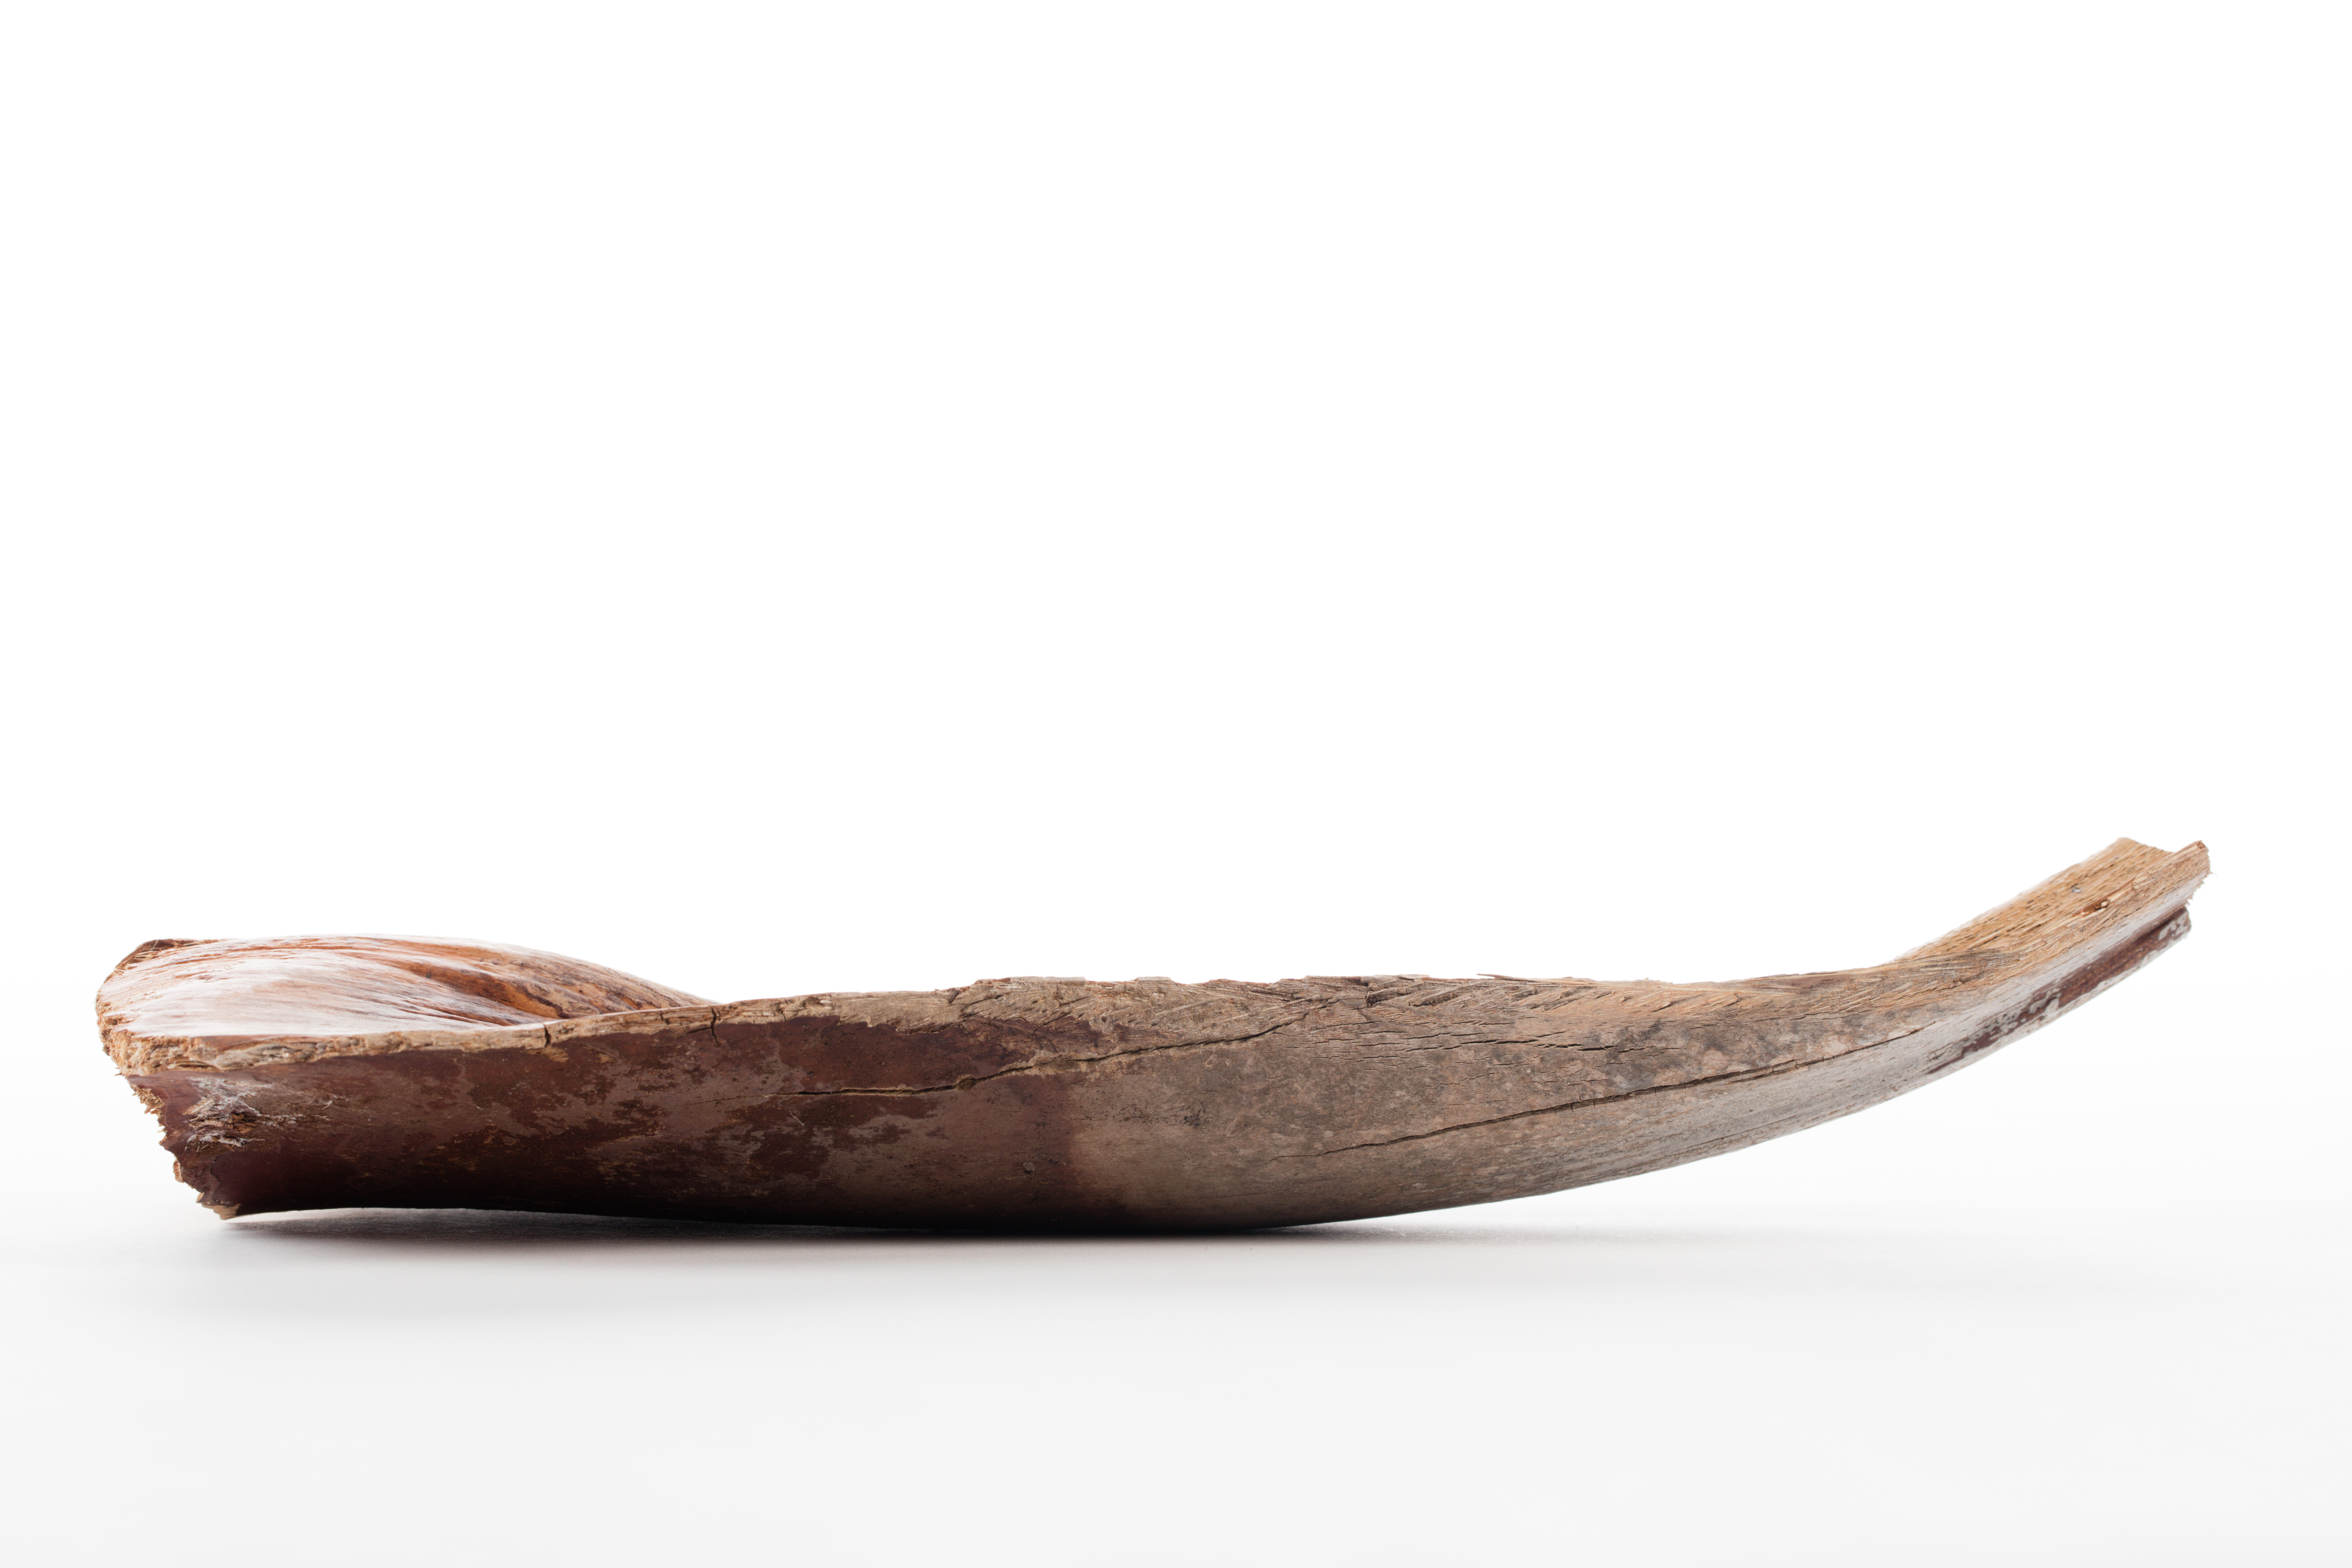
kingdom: Plantae
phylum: Tracheophyta
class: Liliopsida
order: Arecales
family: Arecaceae
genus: Phoenix
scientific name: Phoenix dactylifera
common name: Date palm
